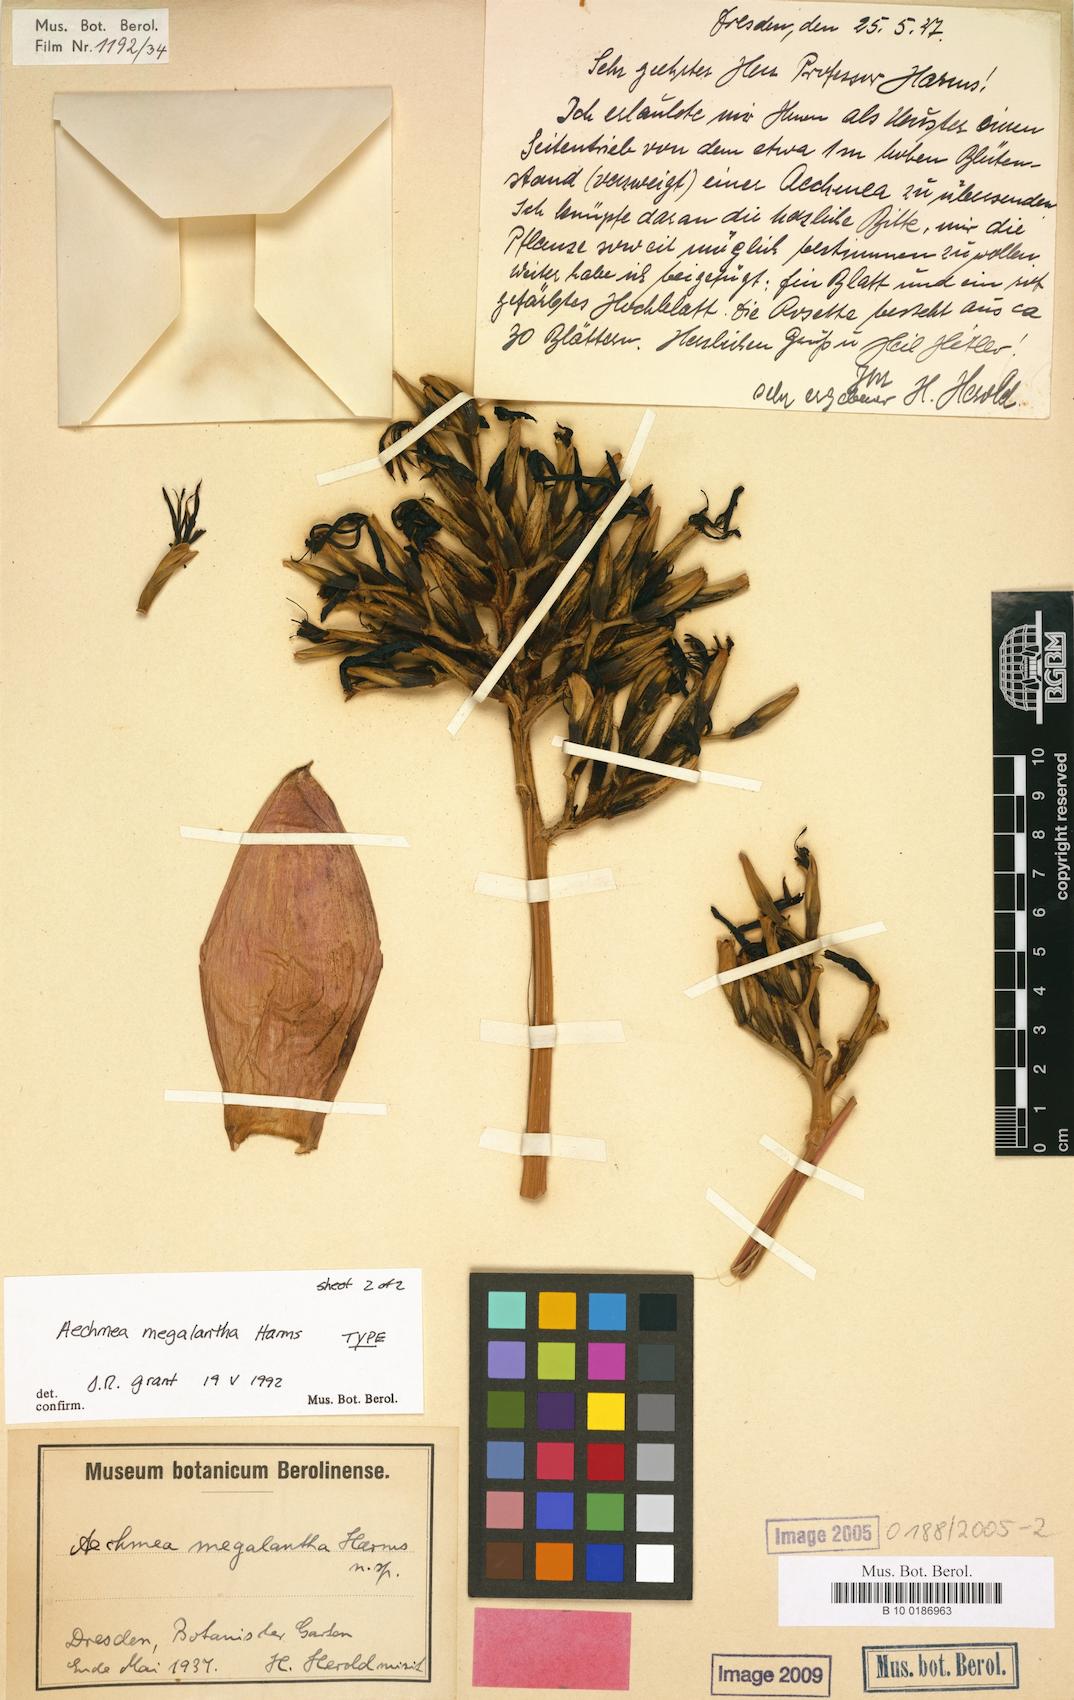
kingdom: Plantae
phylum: Tracheophyta
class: Liliopsida
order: Poales
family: Bromeliaceae
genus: Aechmea
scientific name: Aechmea costantinii
